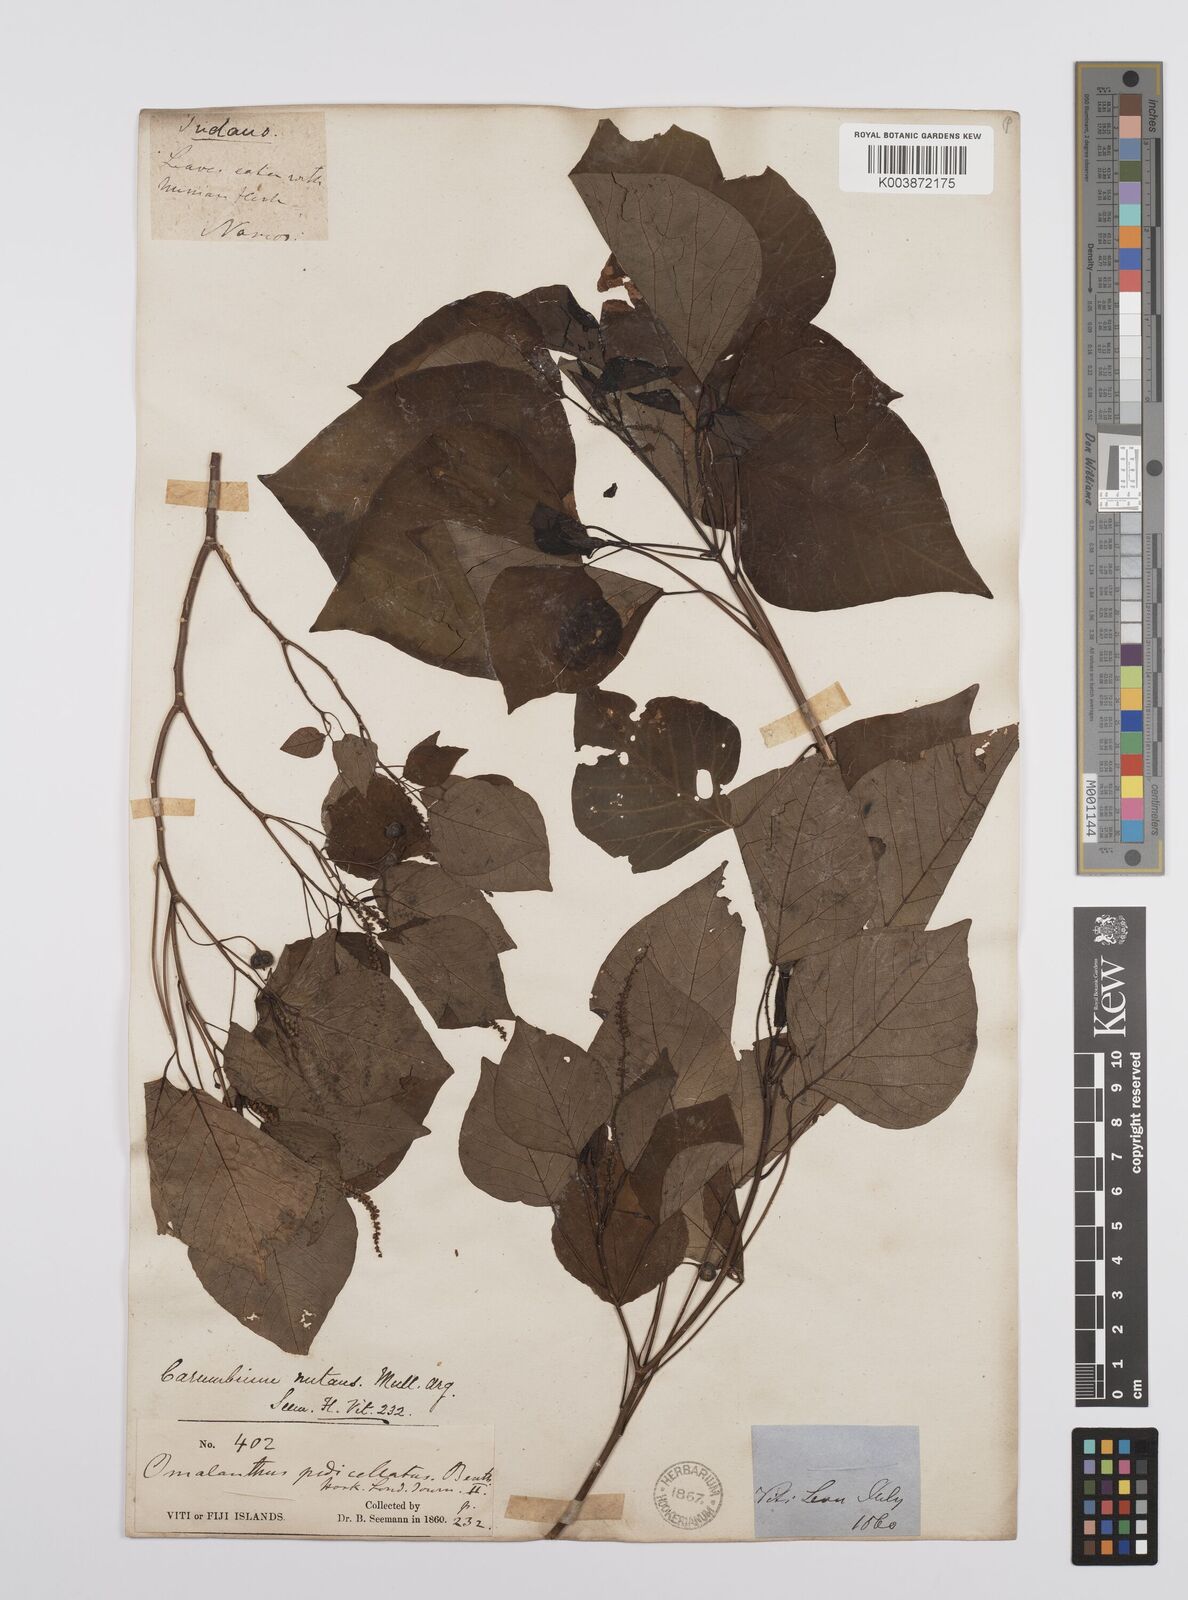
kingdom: Plantae
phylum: Tracheophyta
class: Magnoliopsida
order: Malpighiales
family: Euphorbiaceae
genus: Homalanthus
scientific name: Homalanthus nutans
